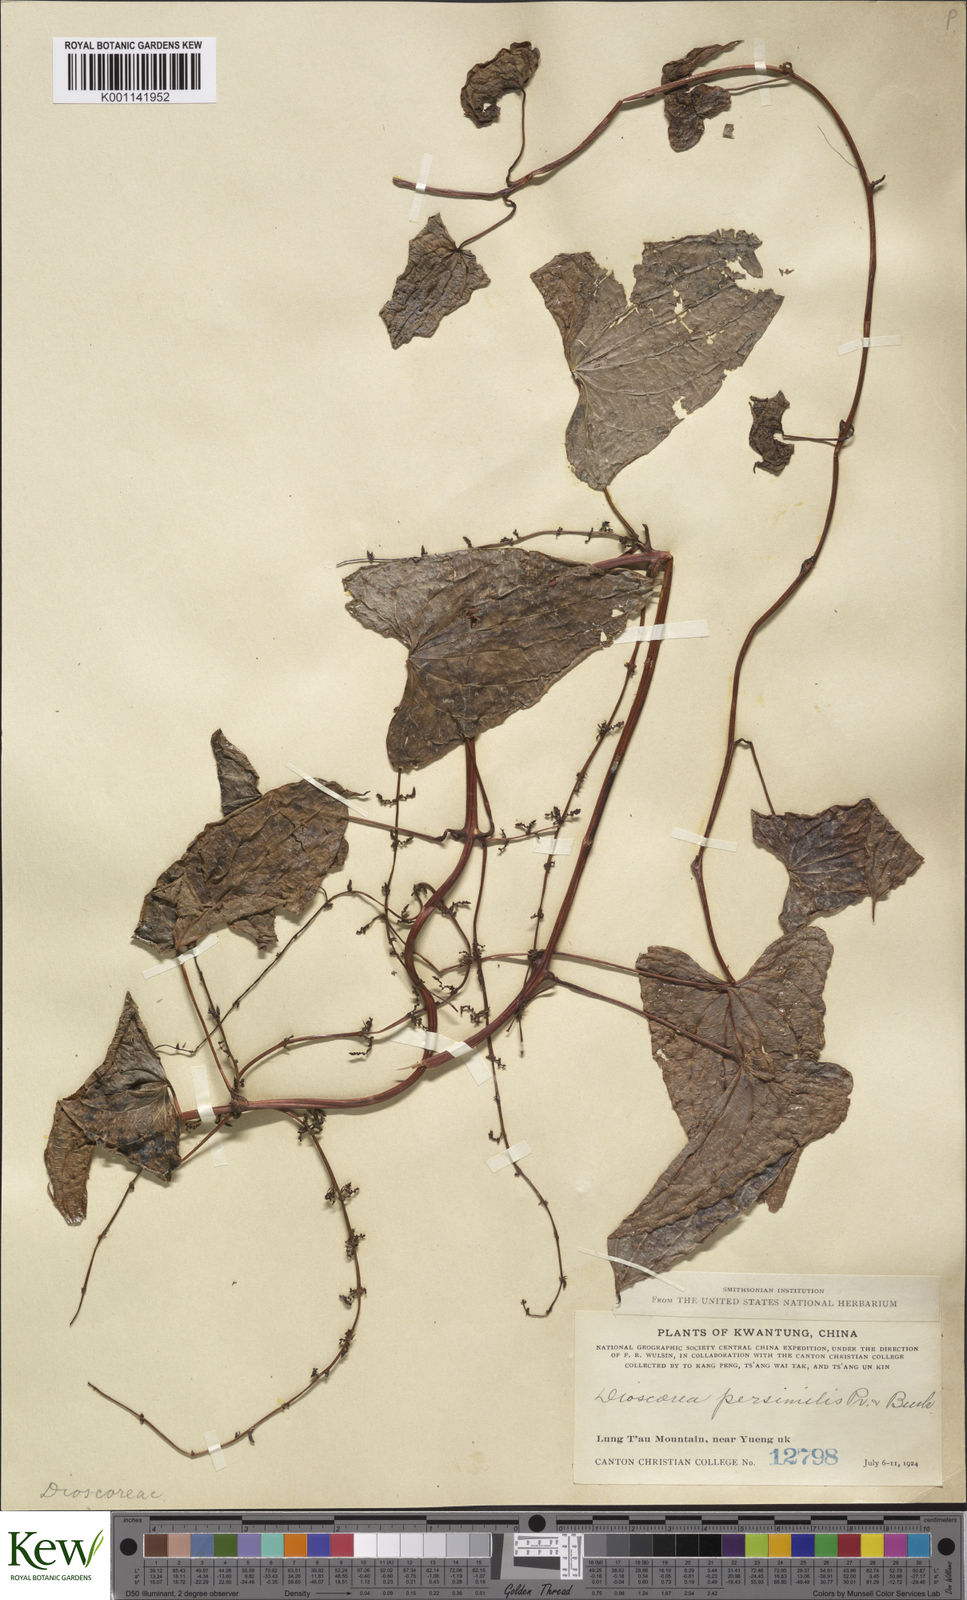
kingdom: Plantae
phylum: Tracheophyta
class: Liliopsida
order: Dioscoreales
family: Dioscoreaceae
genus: Dioscorea
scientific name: Dioscorea hamiltonii
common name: Mountain yam
